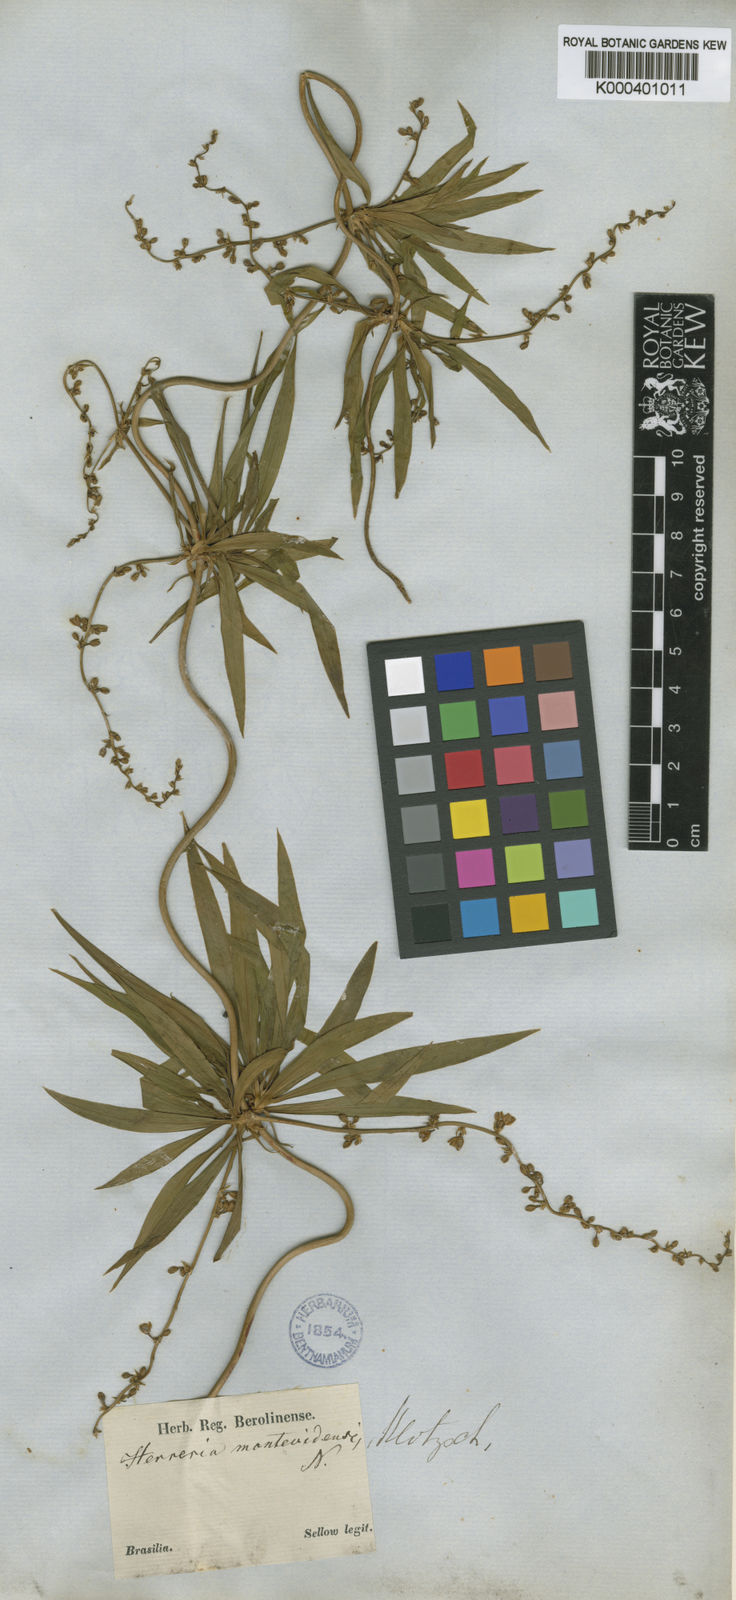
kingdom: Plantae
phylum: Tracheophyta
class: Liliopsida
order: Asparagales
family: Asparagaceae
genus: Herreria
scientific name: Herreria montevidensis
